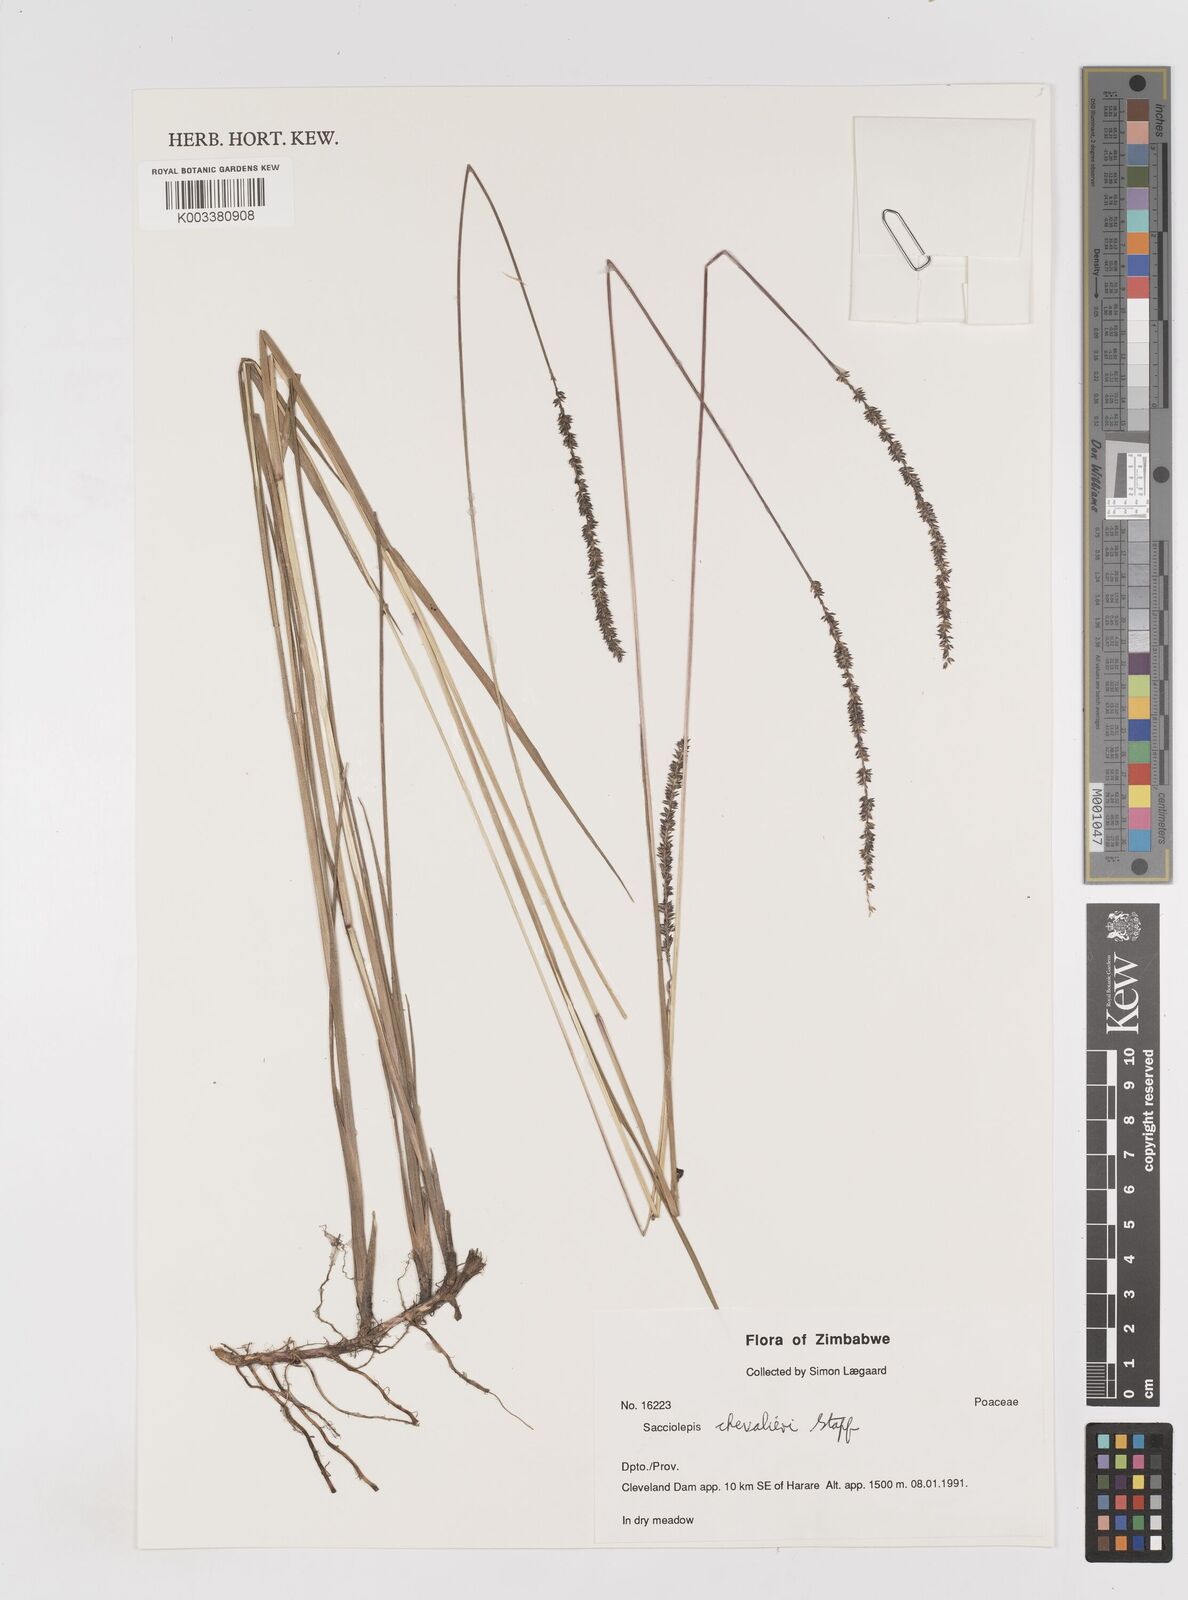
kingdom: Plantae
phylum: Tracheophyta
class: Liliopsida
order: Poales
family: Poaceae
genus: Sacciolepis
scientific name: Sacciolepis chevalieri
